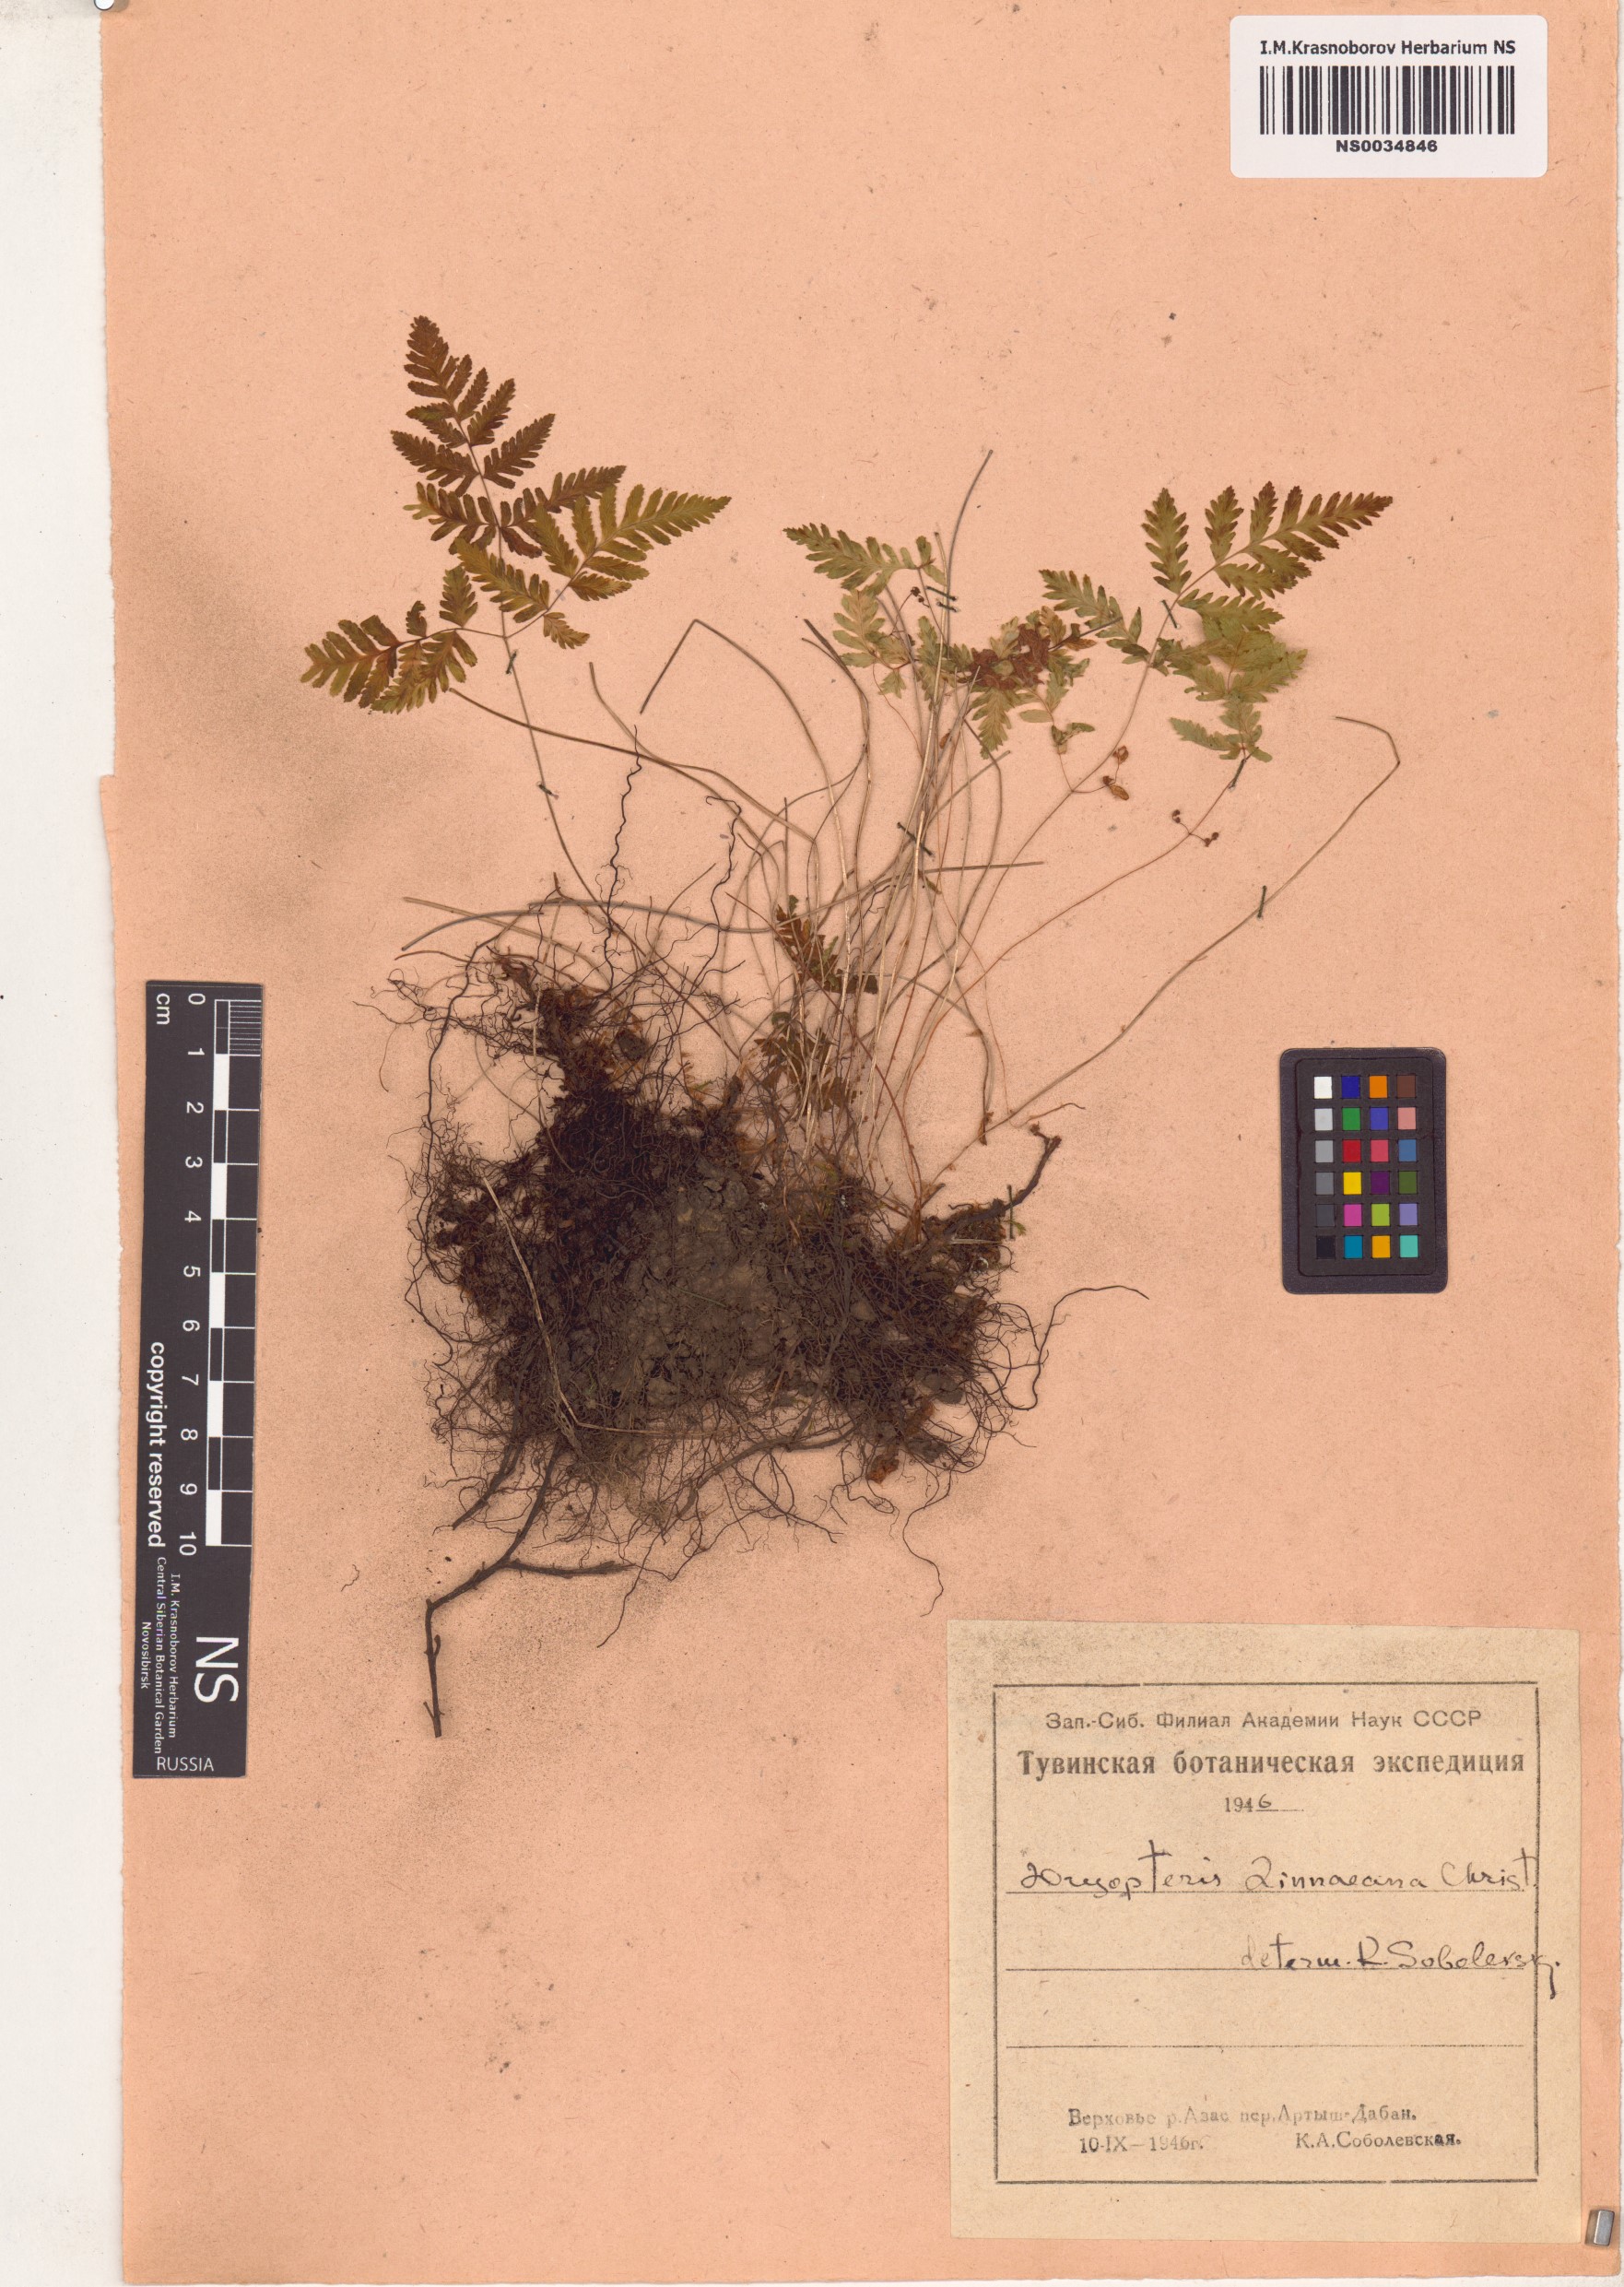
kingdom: Plantae
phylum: Tracheophyta
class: Polypodiopsida
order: Polypodiales
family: Cystopteridaceae
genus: Gymnocarpium
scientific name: Gymnocarpium dryopteris
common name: Oak fern
